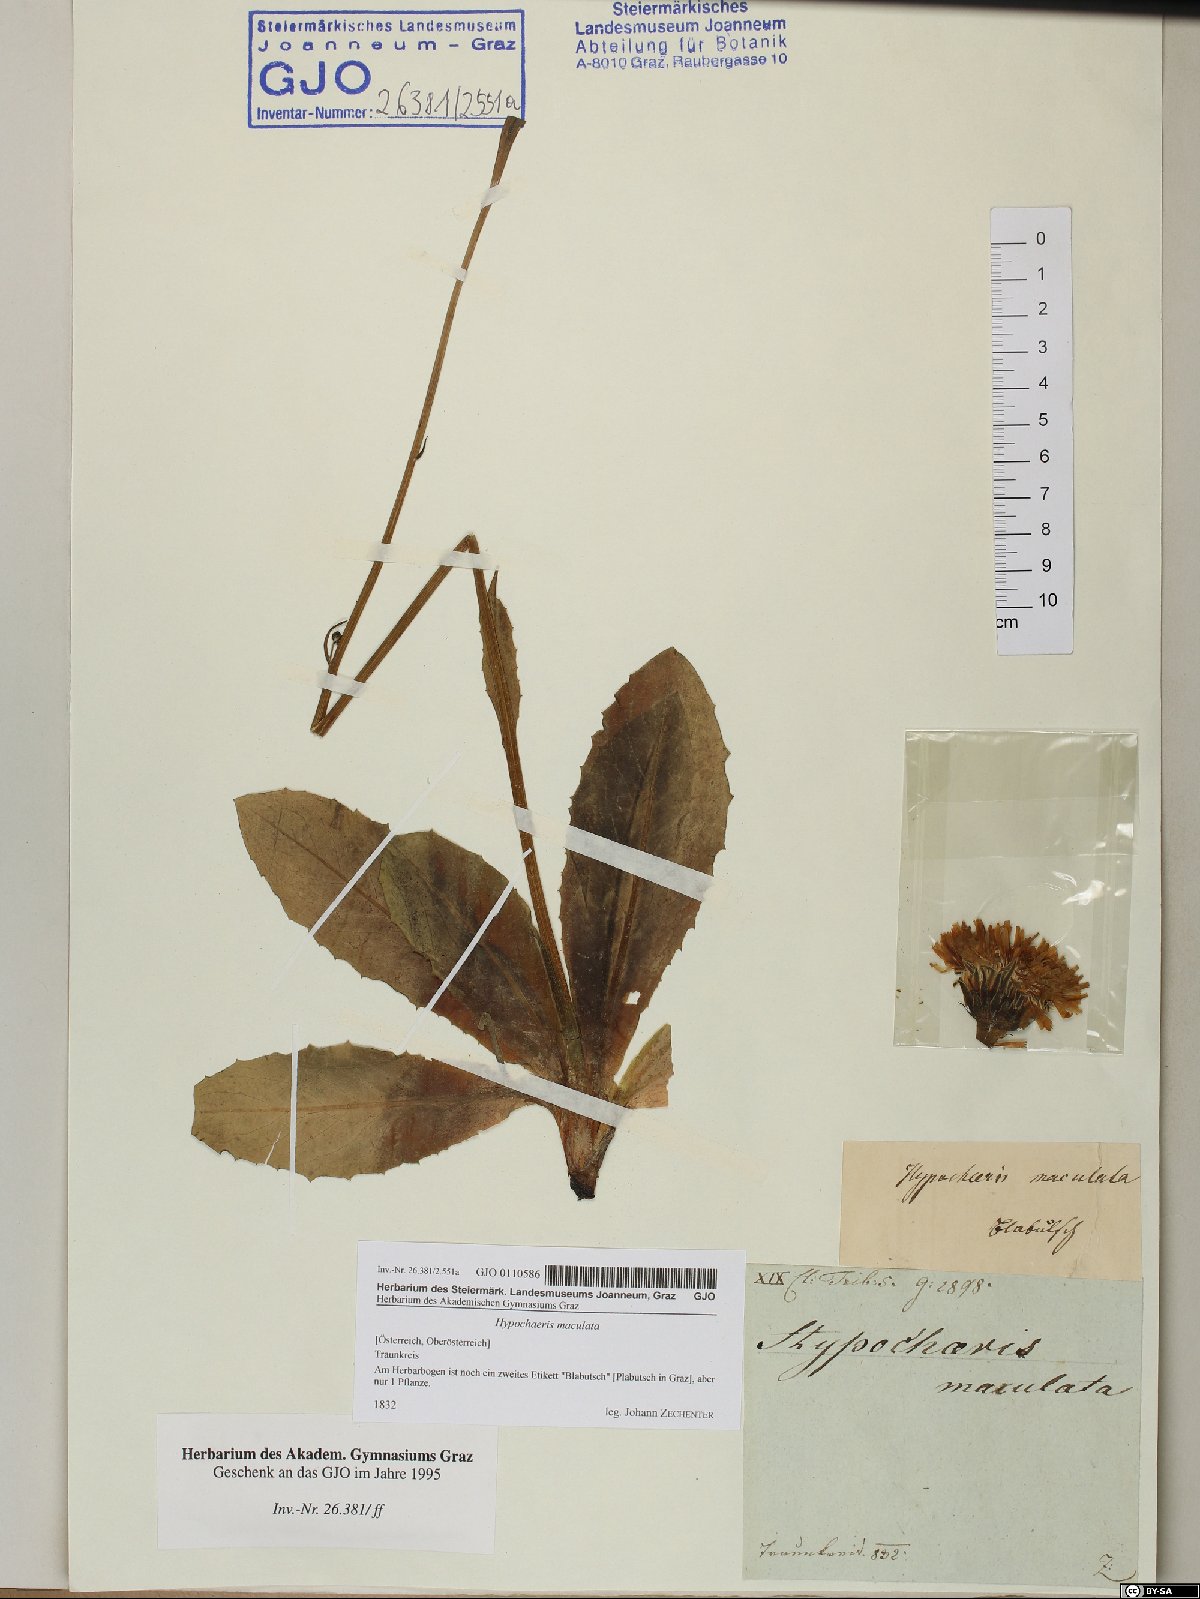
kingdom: Plantae
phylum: Tracheophyta
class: Magnoliopsida
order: Asterales
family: Asteraceae
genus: Trommsdorffia
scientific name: Trommsdorffia maculata
